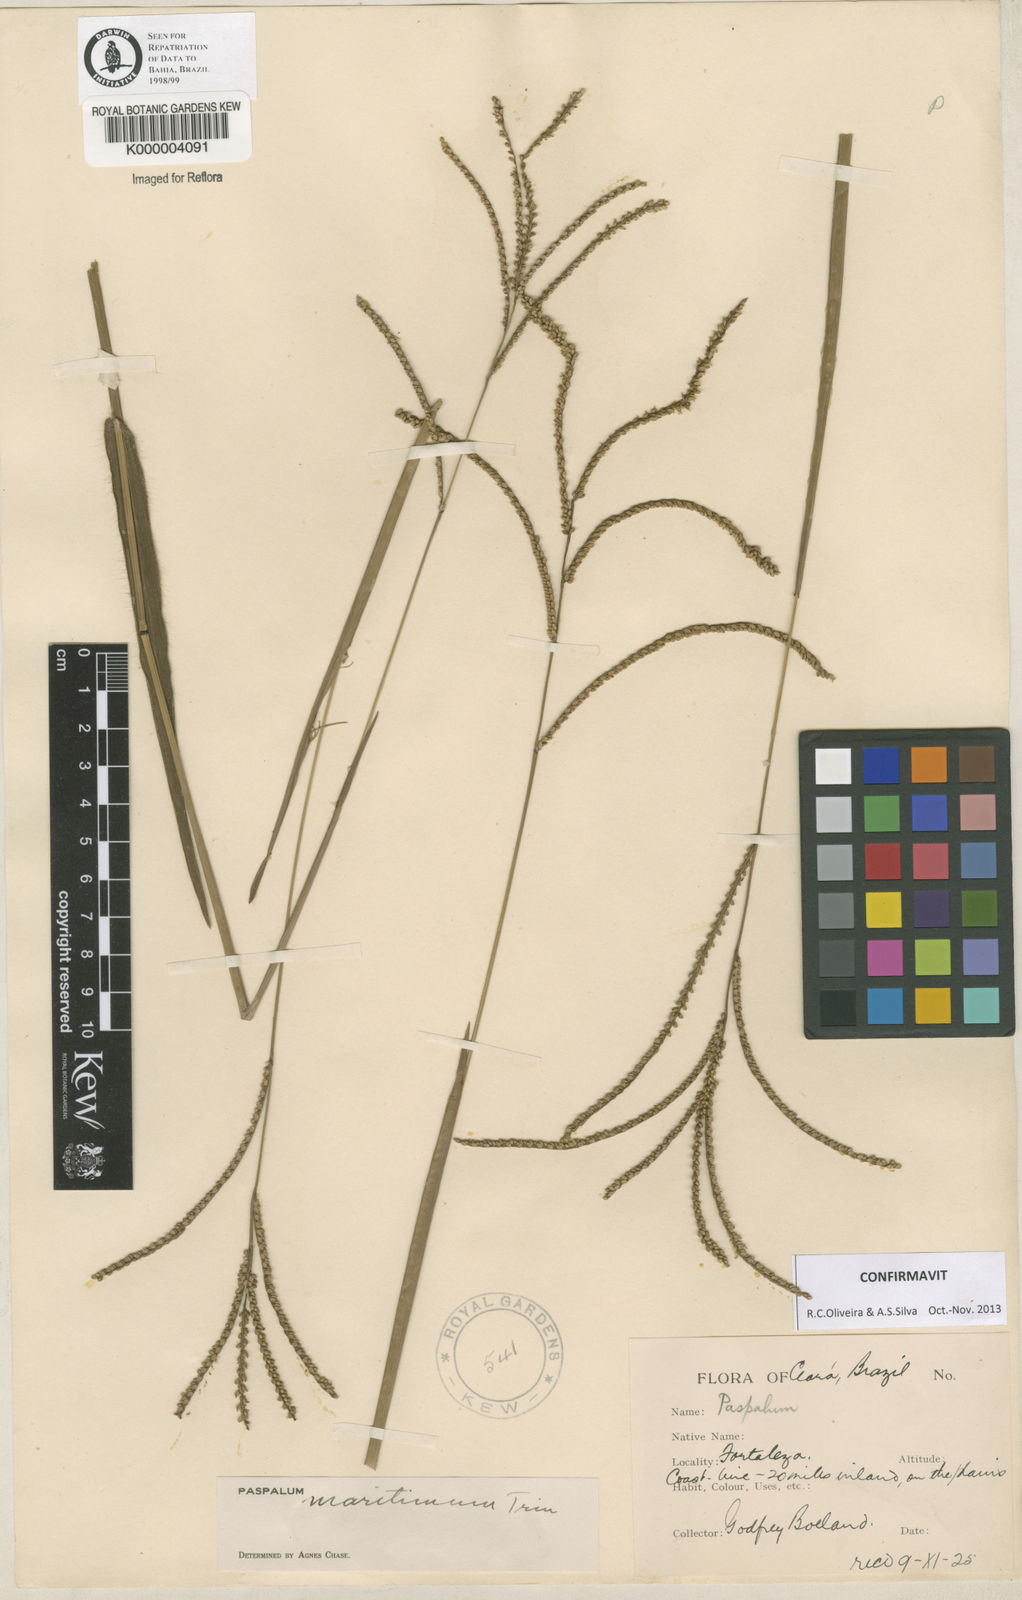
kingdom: Plantae
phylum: Tracheophyta
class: Liliopsida
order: Poales
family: Poaceae
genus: Paspalum
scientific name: Paspalum maritimum
